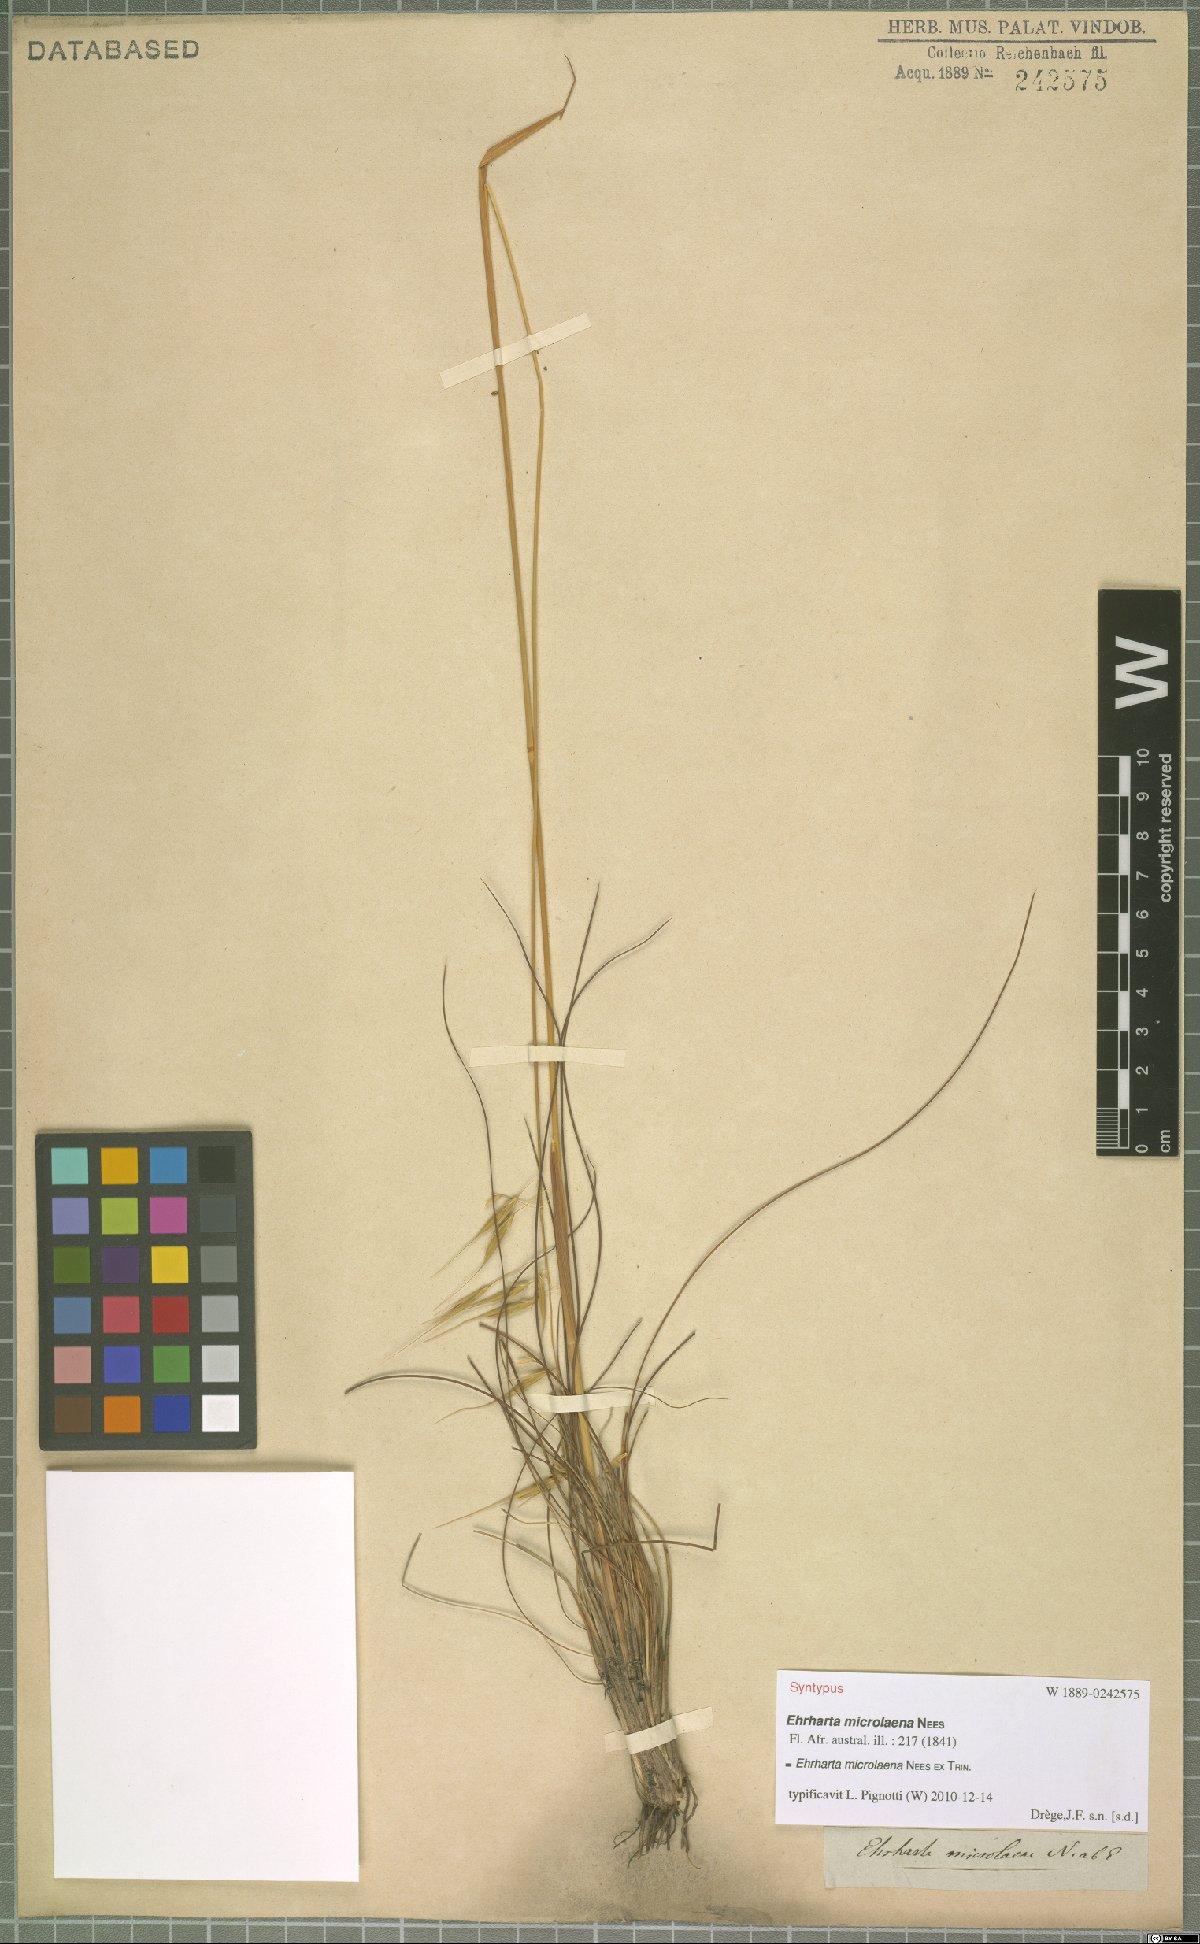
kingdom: Plantae
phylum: Tracheophyta
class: Liliopsida
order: Poales
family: Poaceae
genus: Ehrharta
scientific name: Ehrharta microlaena
